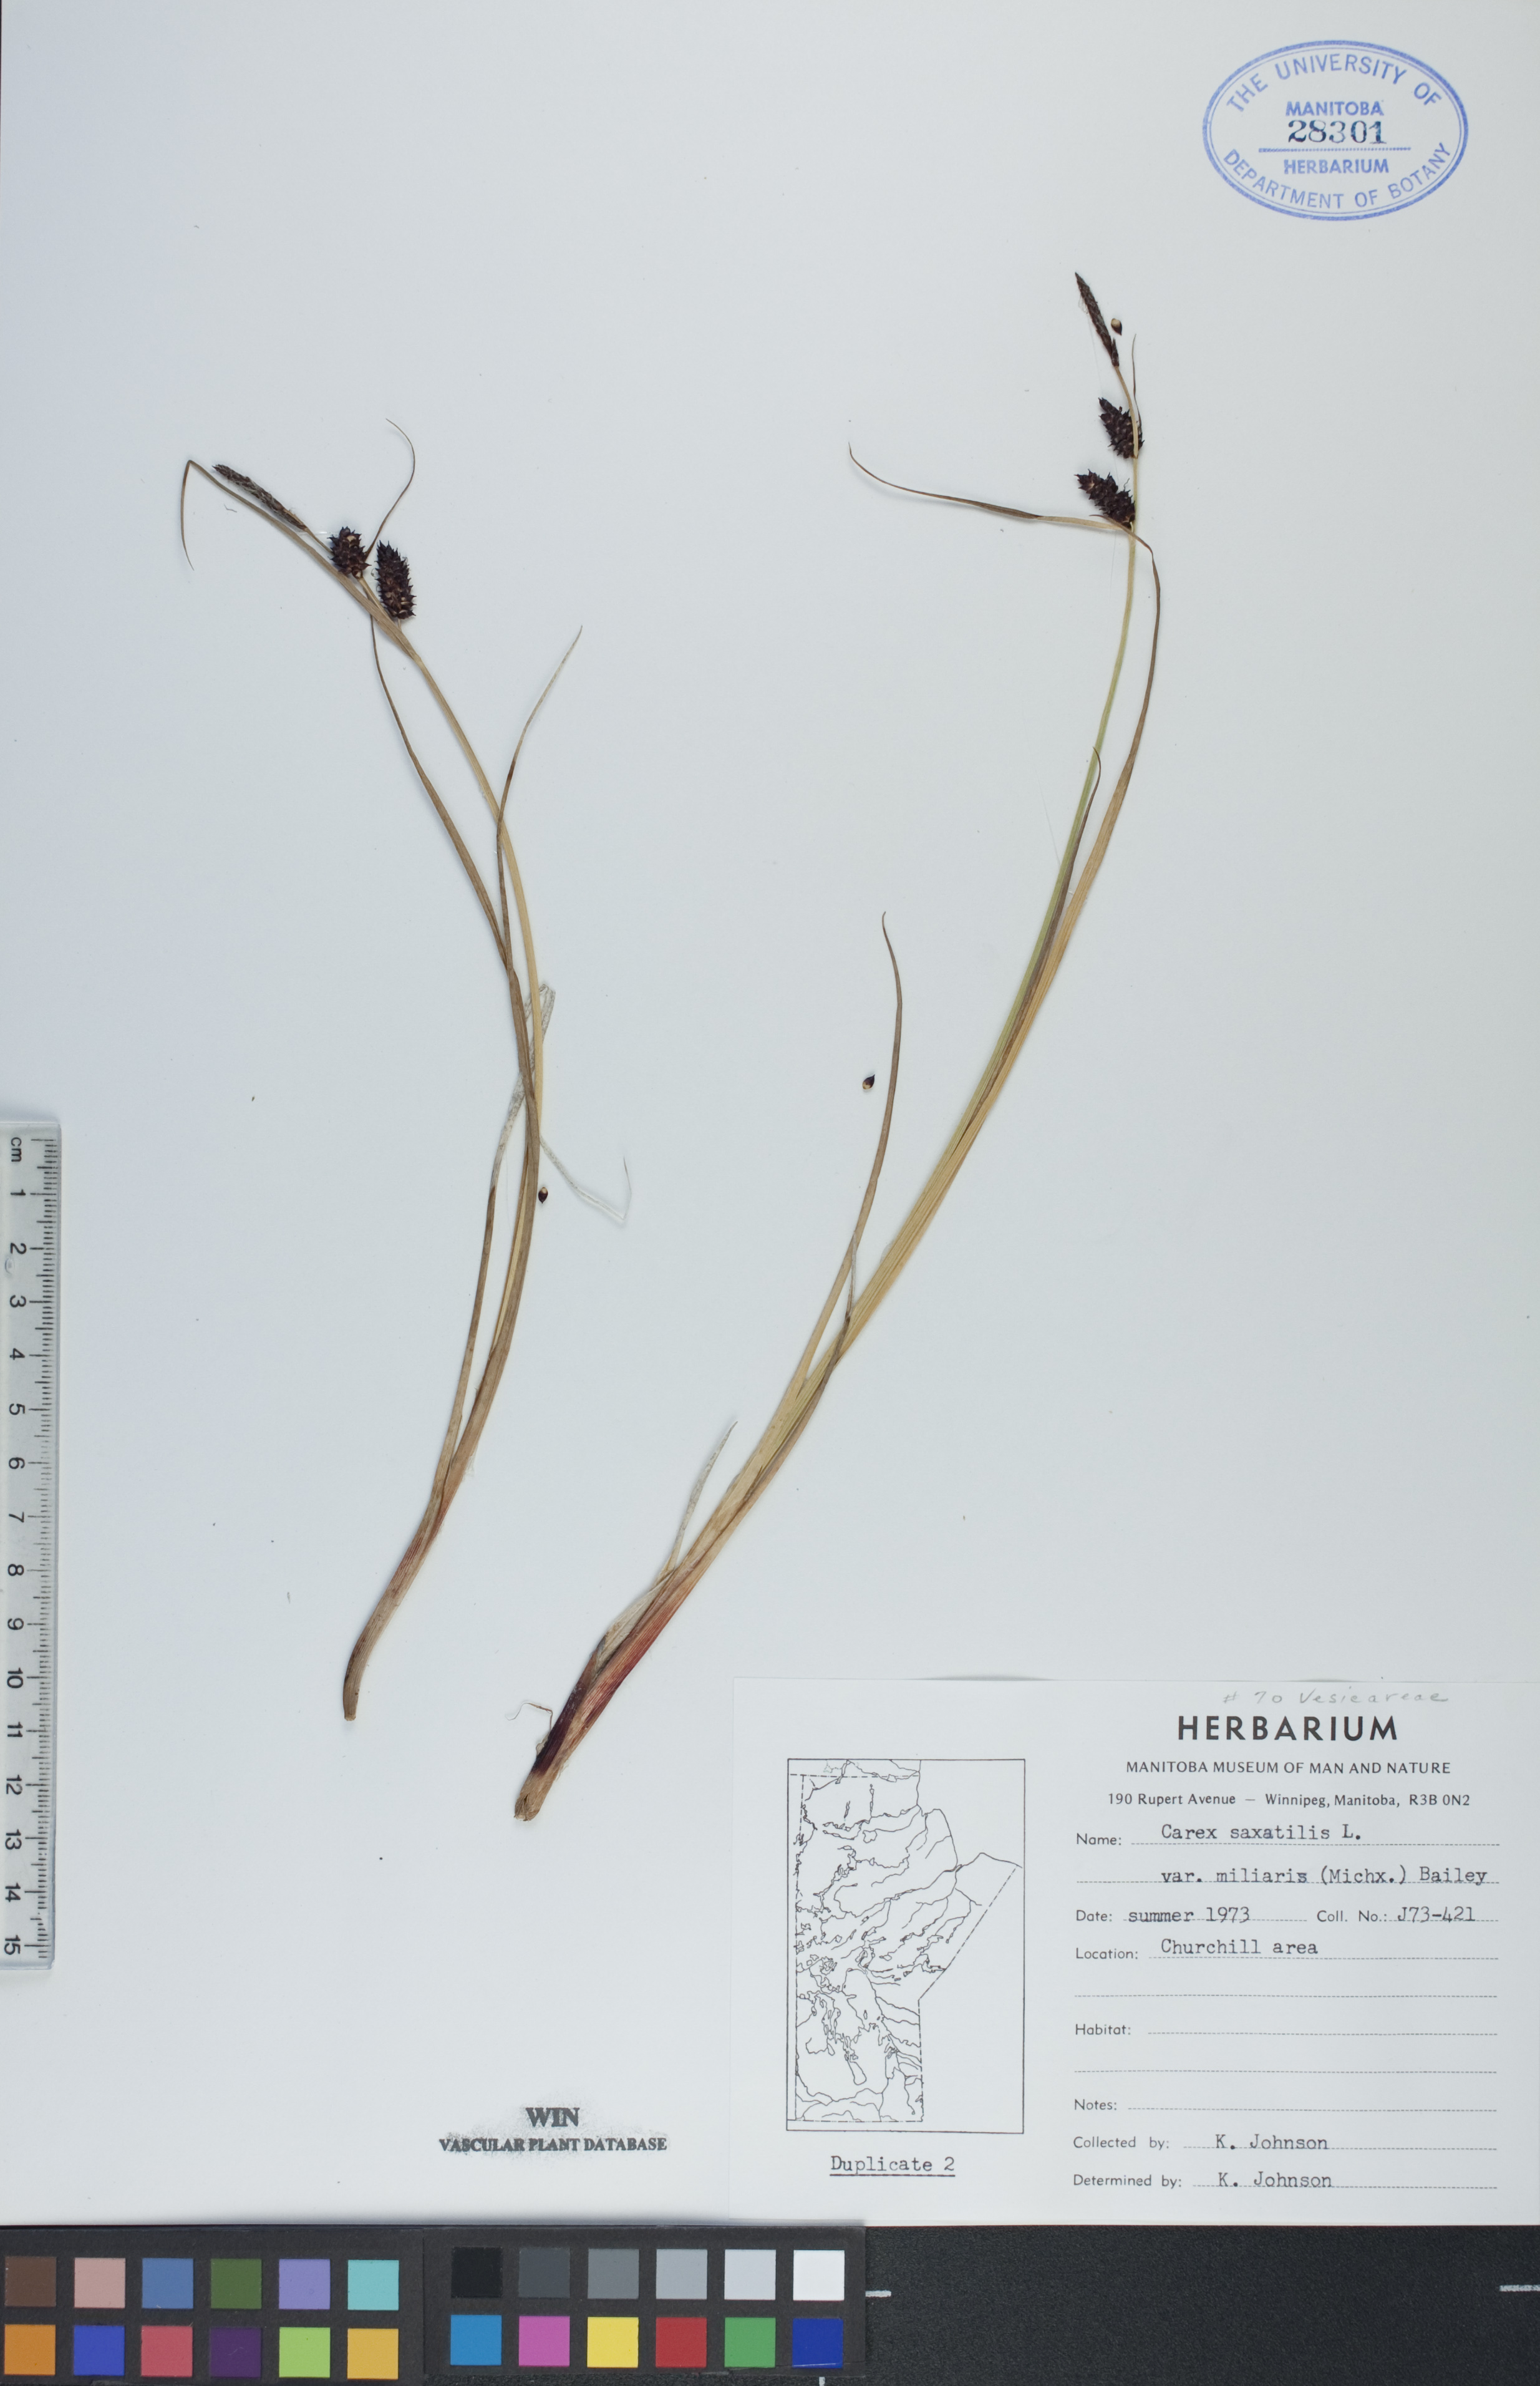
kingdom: Plantae
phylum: Tracheophyta
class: Liliopsida
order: Poales
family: Cyperaceae
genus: Carex
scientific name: Carex miliaris
